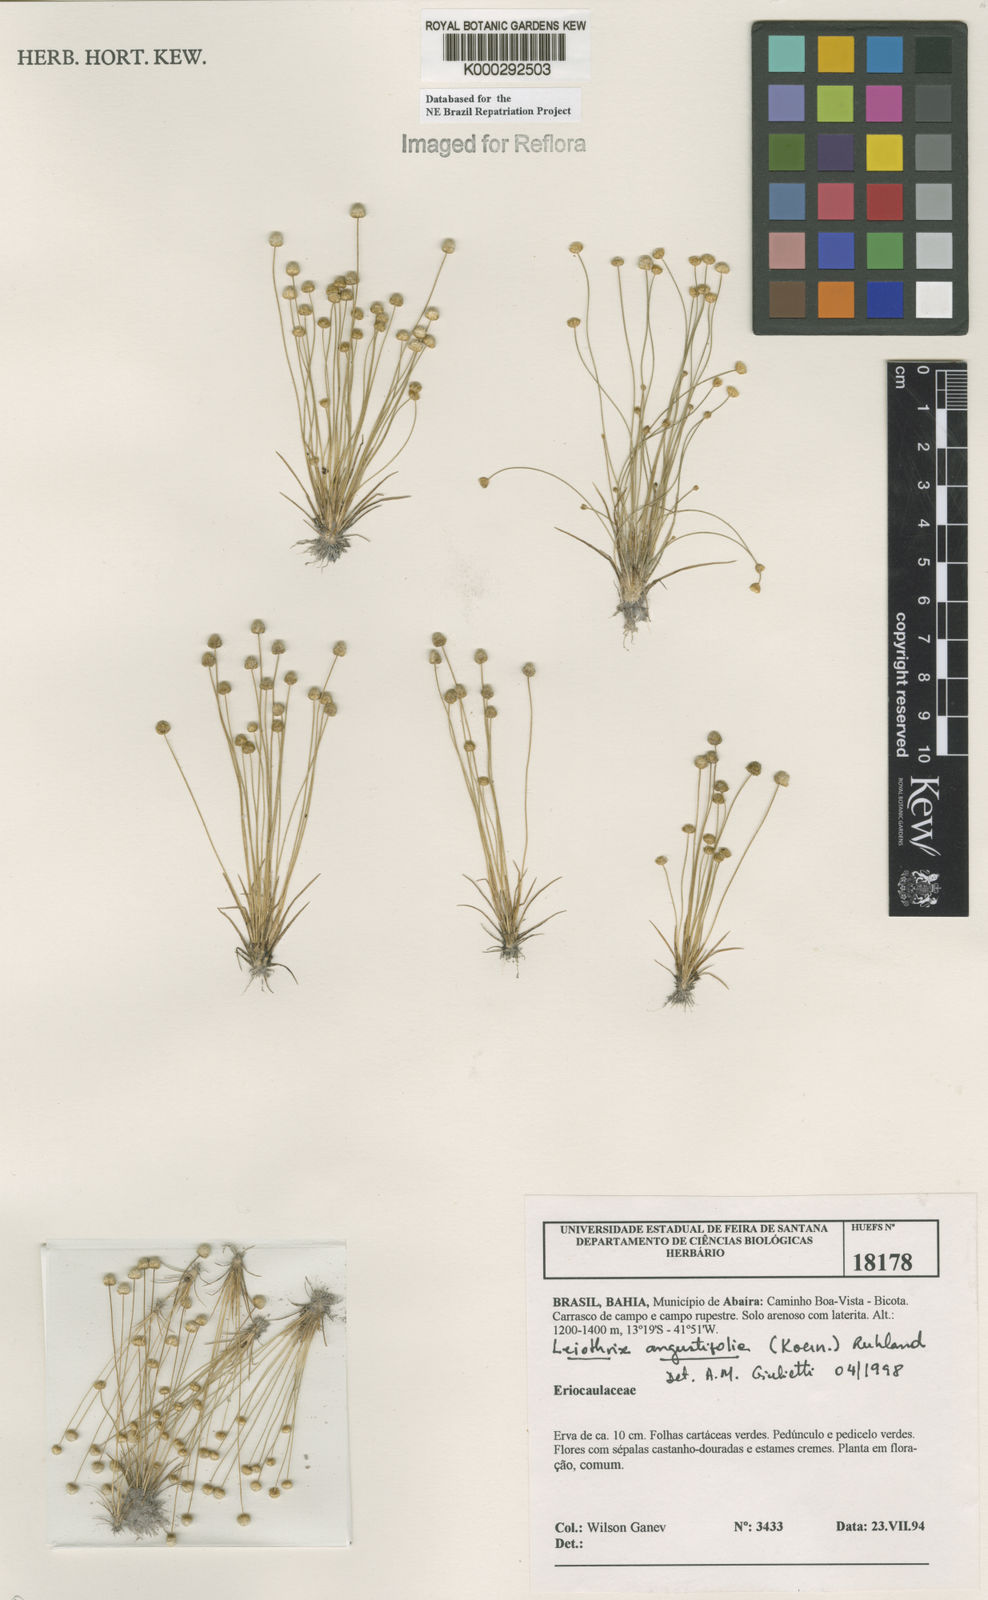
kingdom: Plantae
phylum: Tracheophyta
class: Liliopsida
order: Poales
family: Eriocaulaceae
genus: Leiothrix
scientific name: Leiothrix angustifolia
